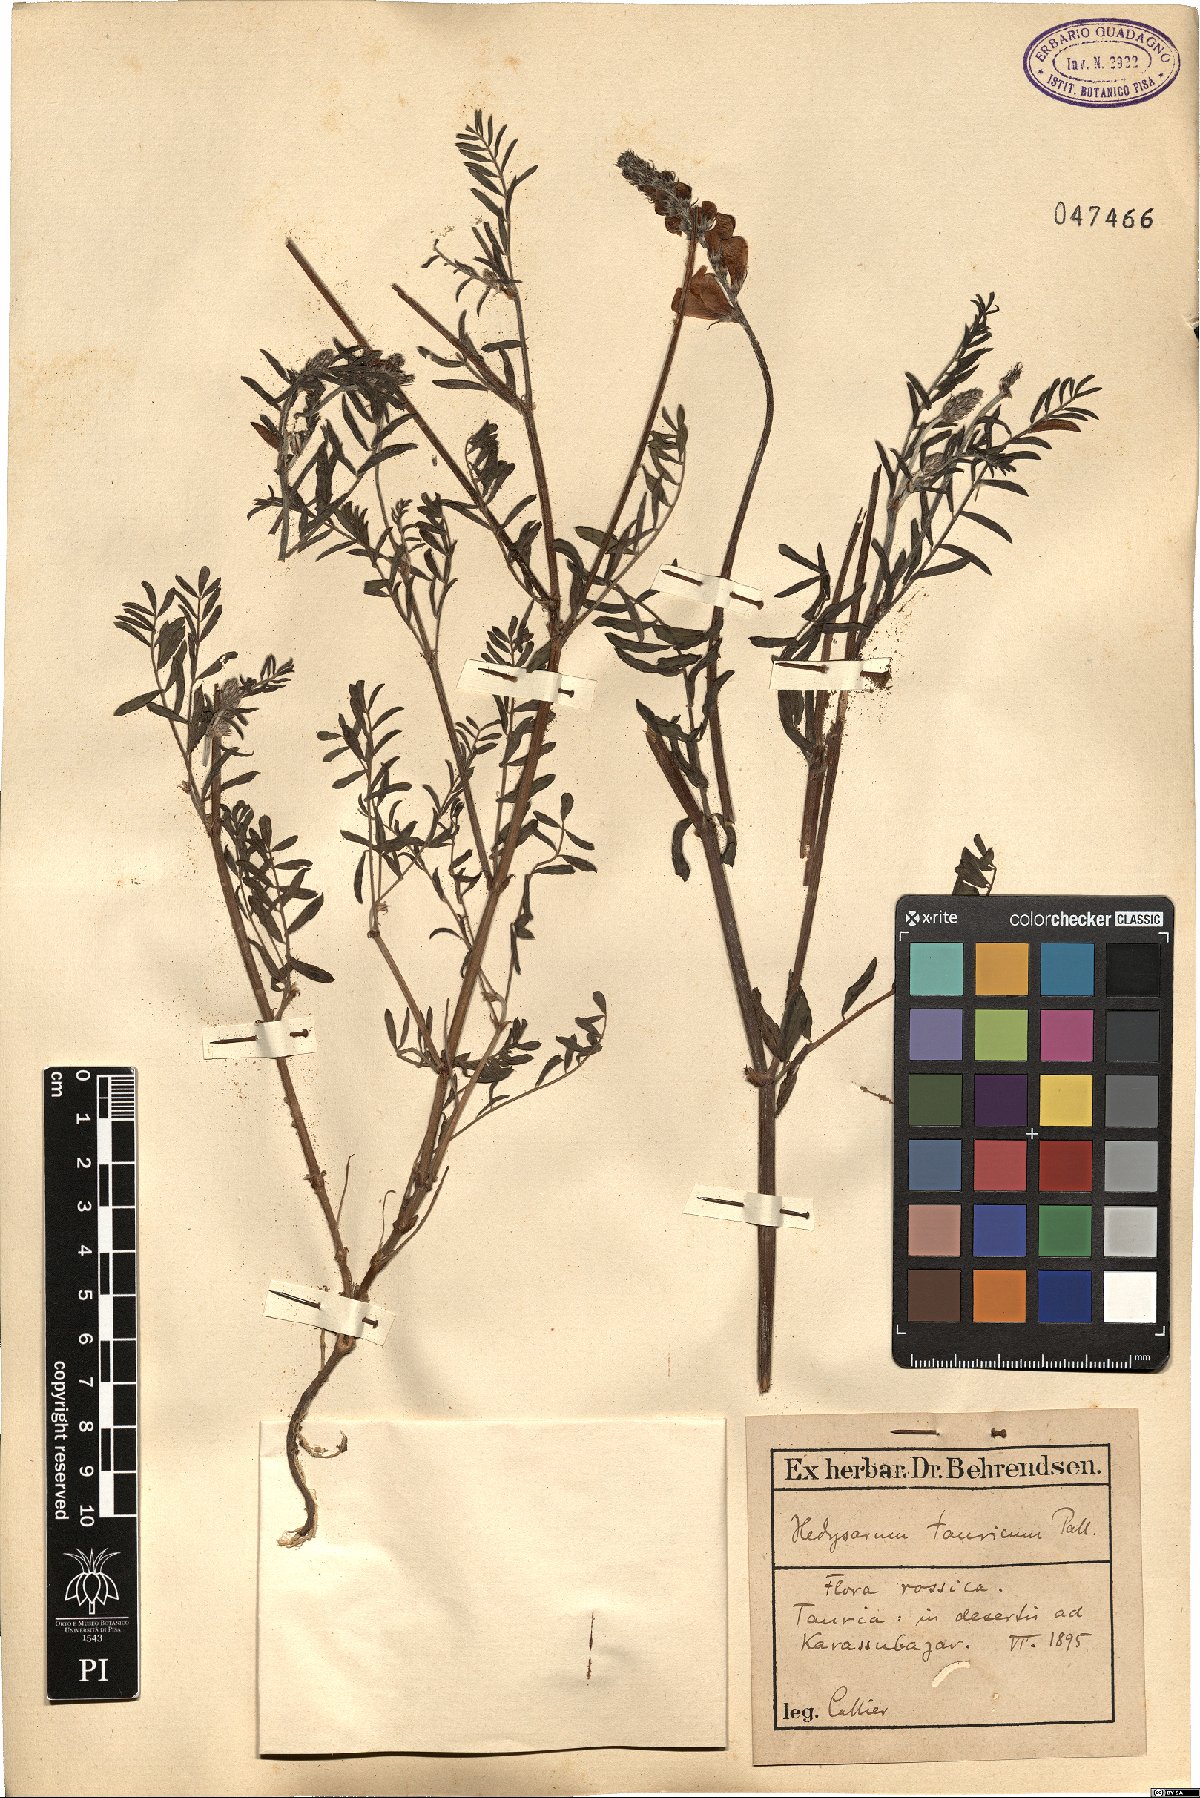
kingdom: Plantae
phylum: Tracheophyta
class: Magnoliopsida
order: Fabales
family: Fabaceae
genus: Hedysarum
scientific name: Hedysarum tauricum
